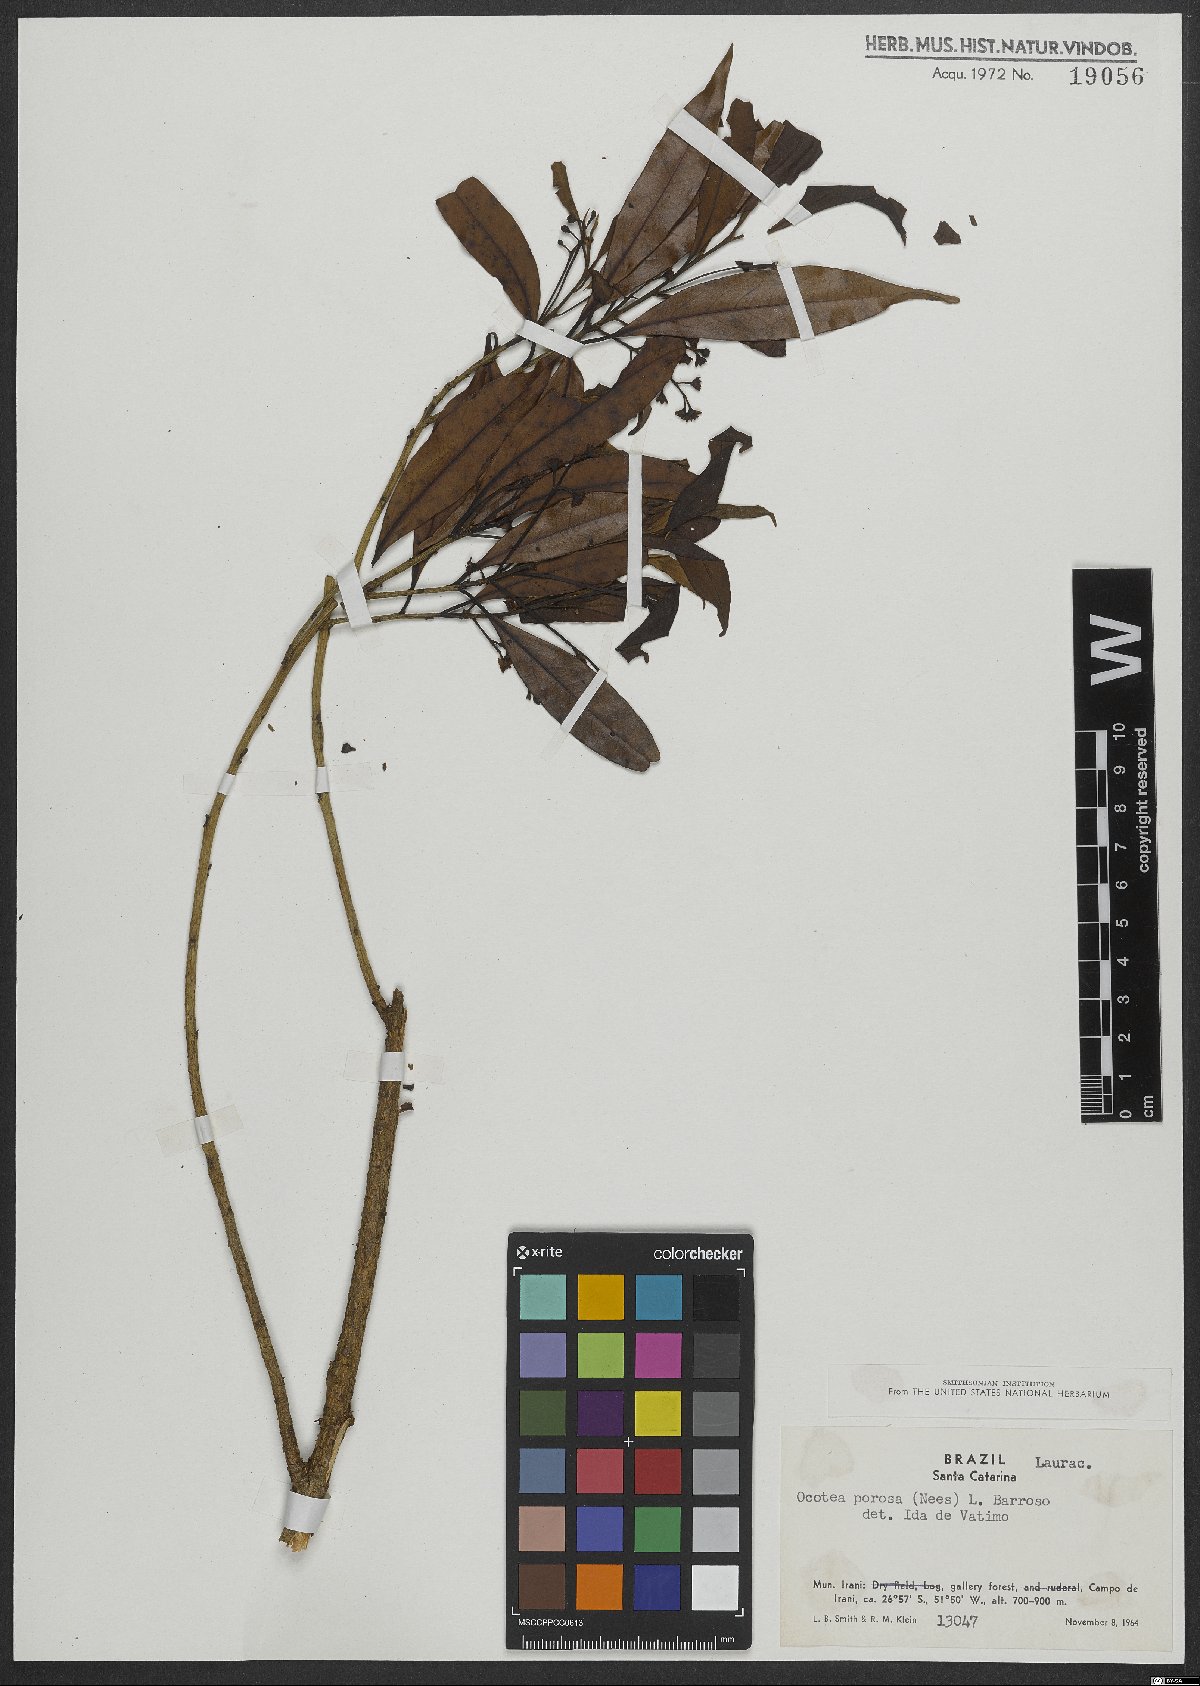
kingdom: Plantae
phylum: Tracheophyta
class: Magnoliopsida
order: Laurales
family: Lauraceae
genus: Ocotea
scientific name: Ocotea porosa
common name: Brazilian-walnut
